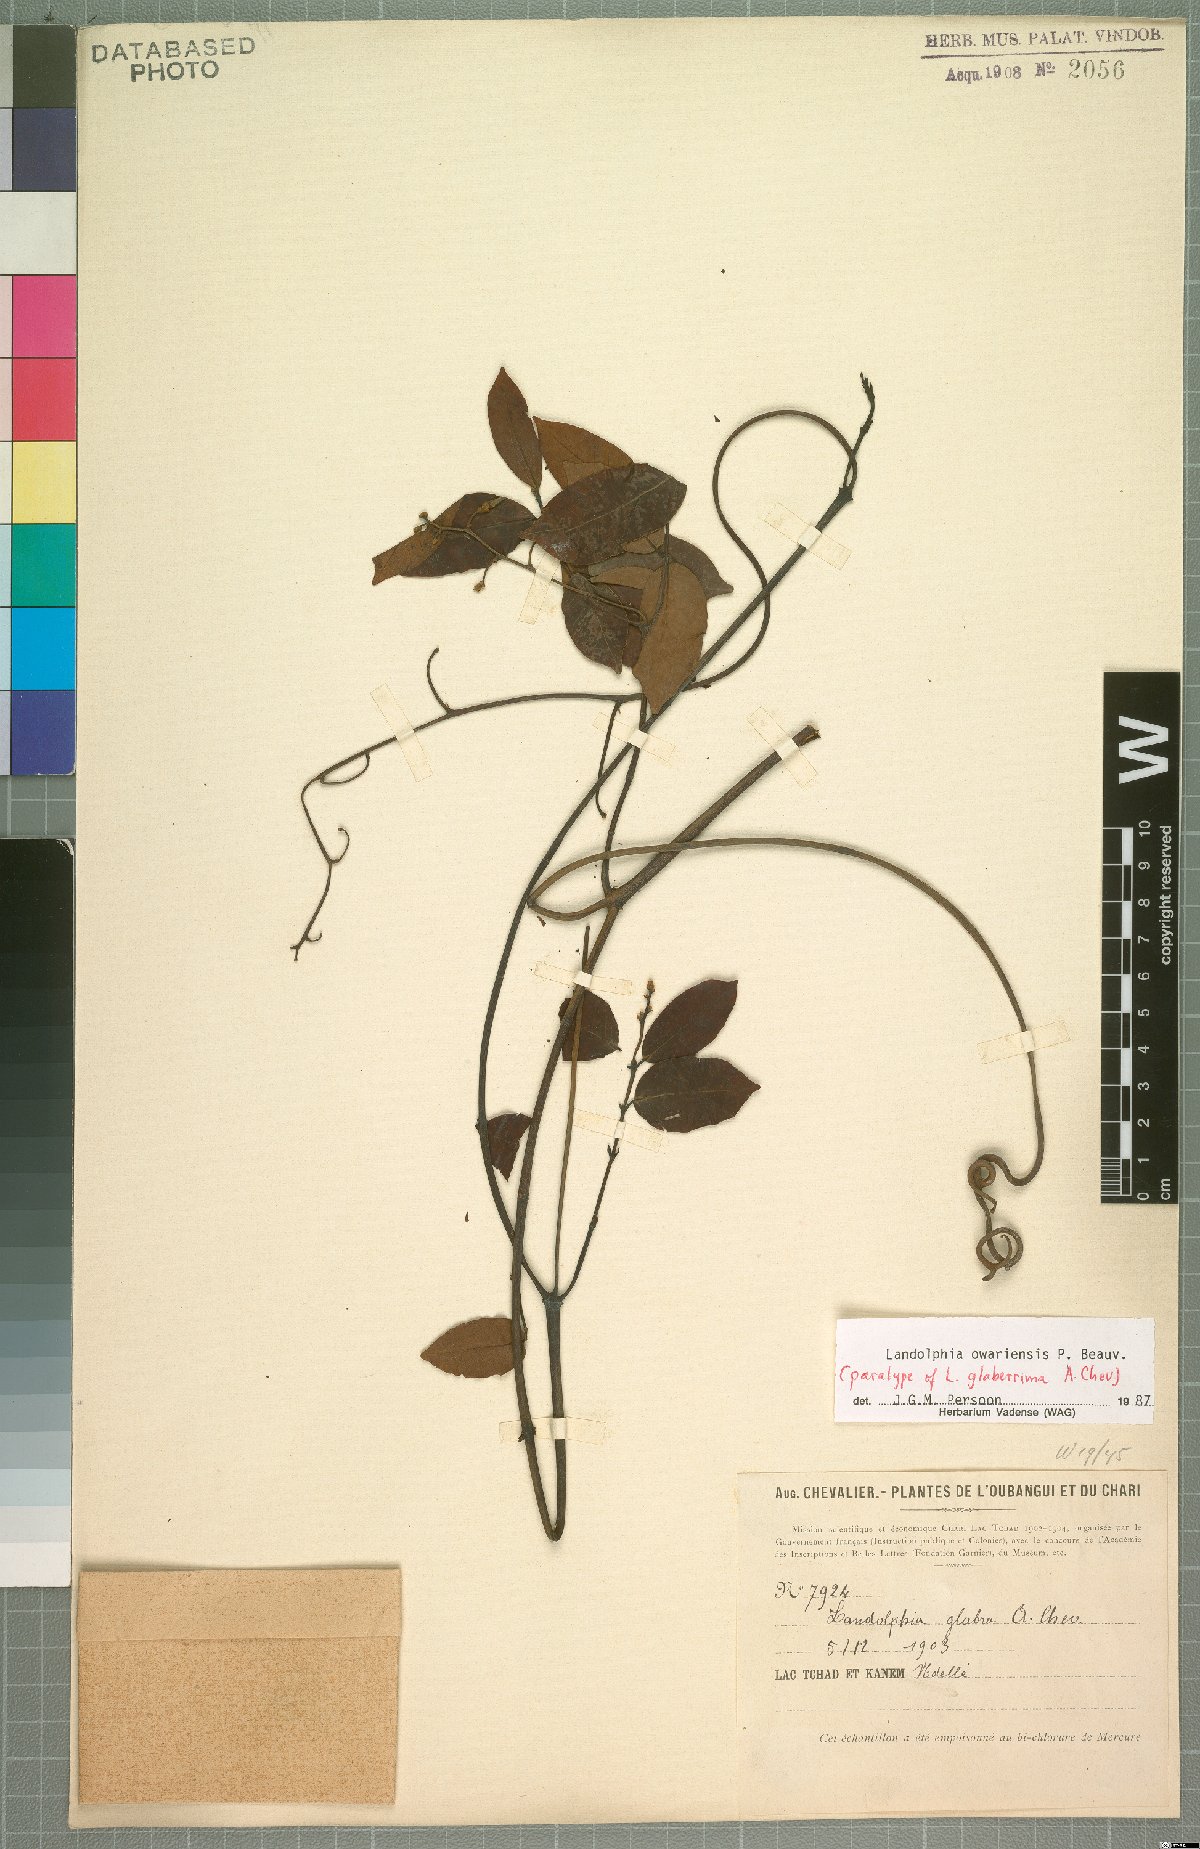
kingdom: Plantae
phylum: Tracheophyta
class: Magnoliopsida
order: Gentianales
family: Apocynaceae
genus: Landolphia
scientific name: Landolphia owariensis
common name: White-ball-rubber
